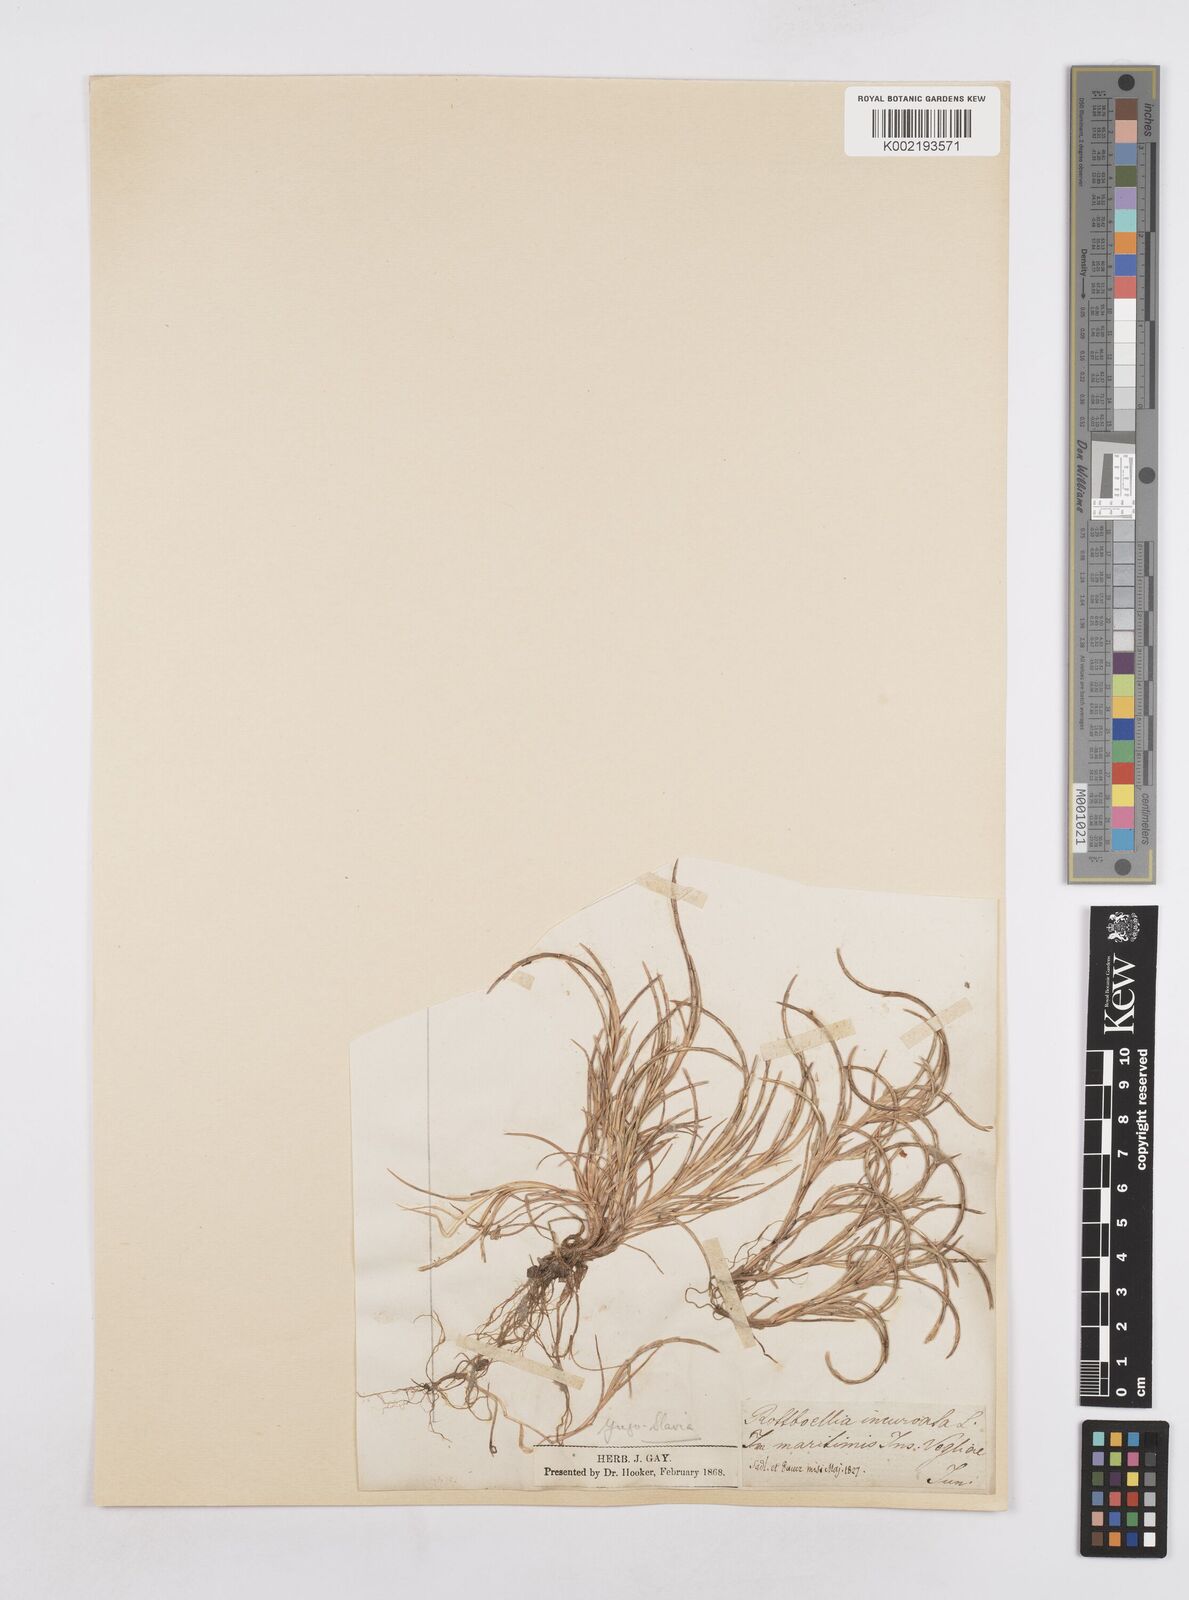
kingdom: Plantae
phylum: Tracheophyta
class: Liliopsida
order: Poales
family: Poaceae
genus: Parapholis
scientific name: Parapholis incurva
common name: Curved sicklegrass
